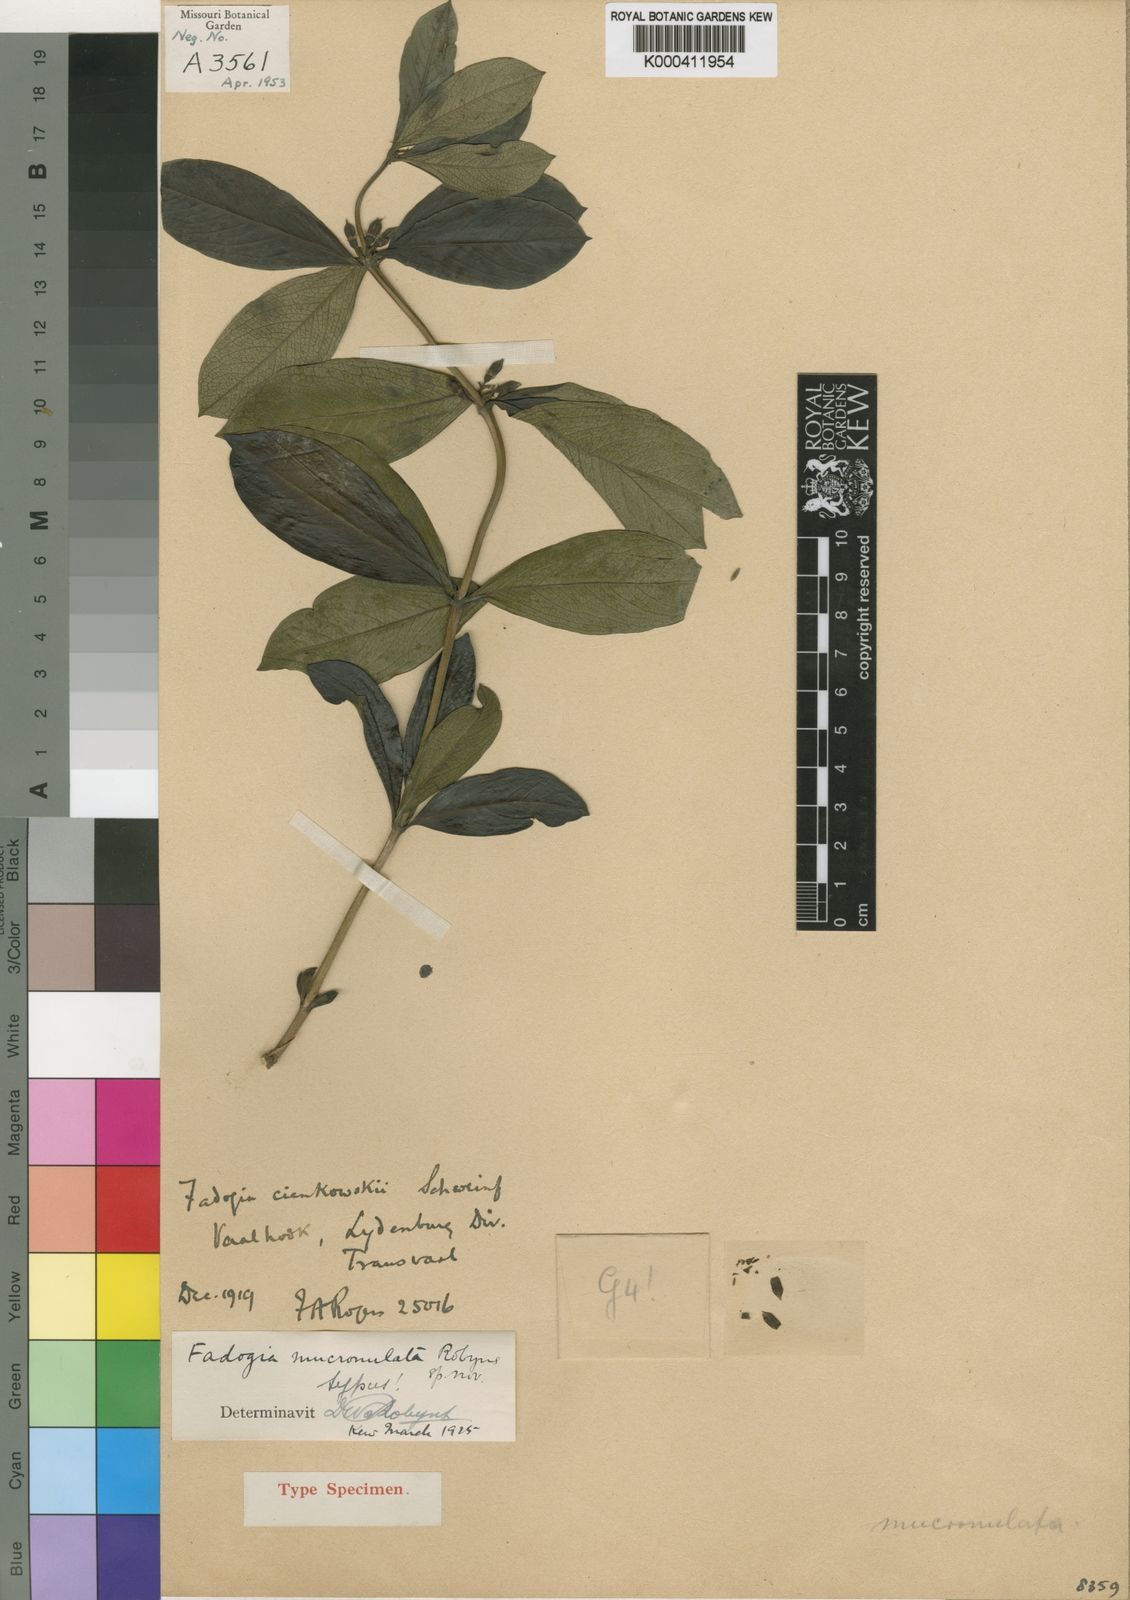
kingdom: Plantae
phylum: Tracheophyta
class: Magnoliopsida
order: Gentianales
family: Rubiaceae
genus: Fadogia
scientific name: Fadogia tetraquetra
